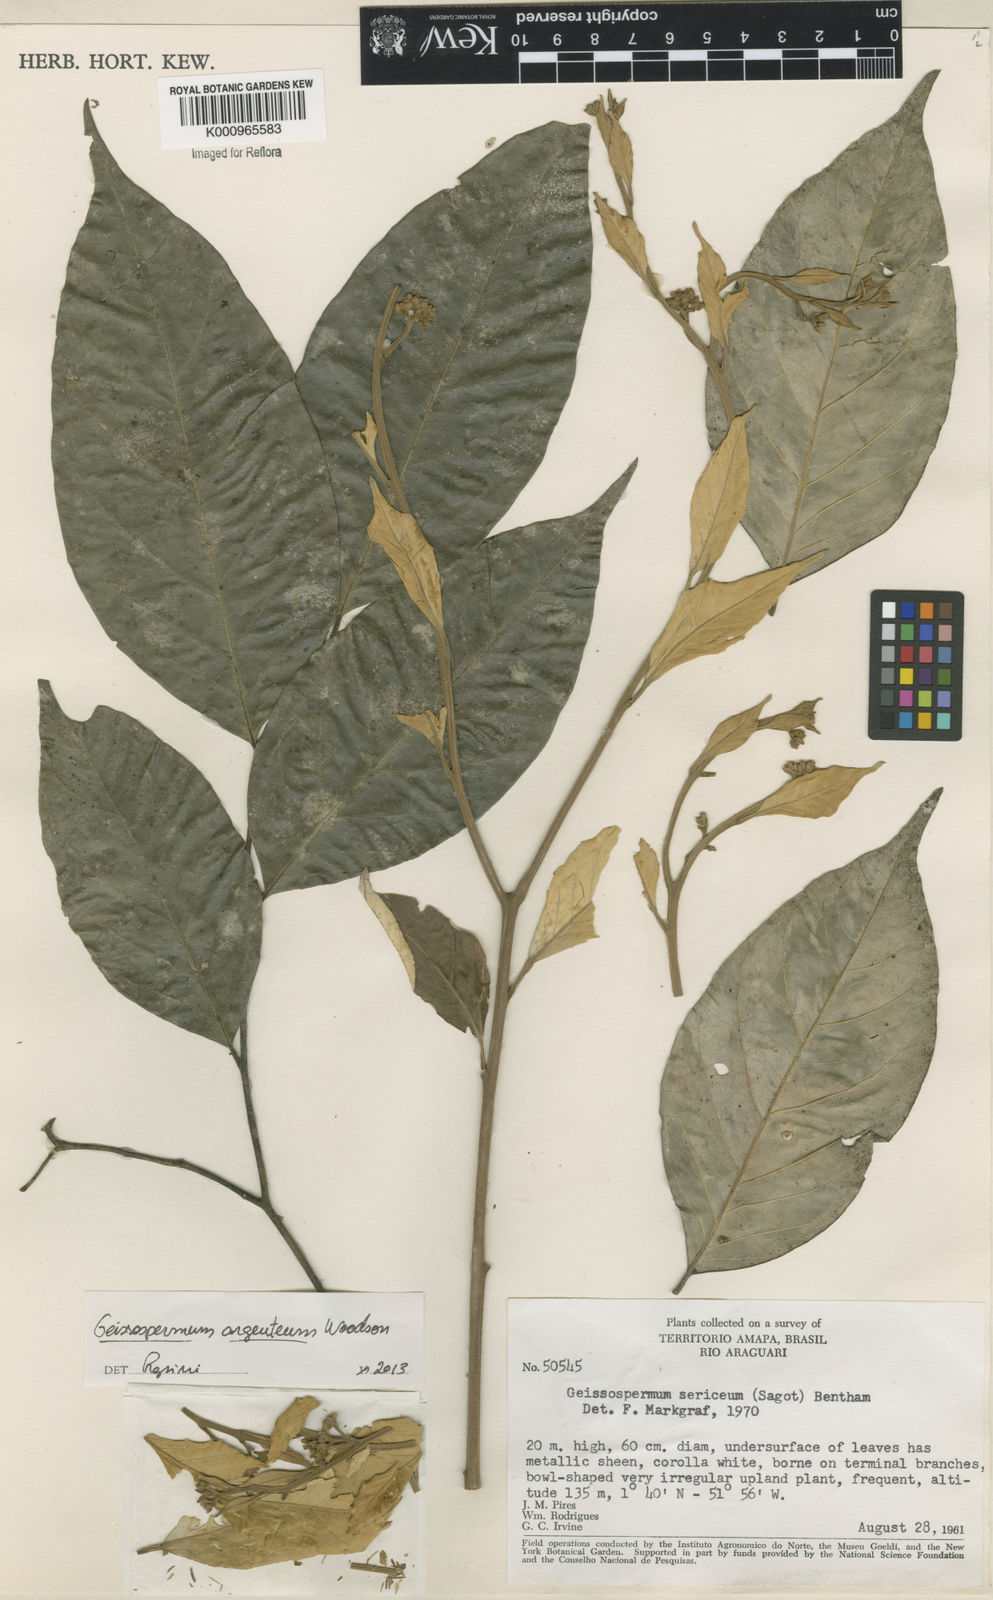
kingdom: Plantae
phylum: Tracheophyta
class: Magnoliopsida
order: Gentianales
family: Apocynaceae
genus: Geissospermum
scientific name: Geissospermum argenteum
